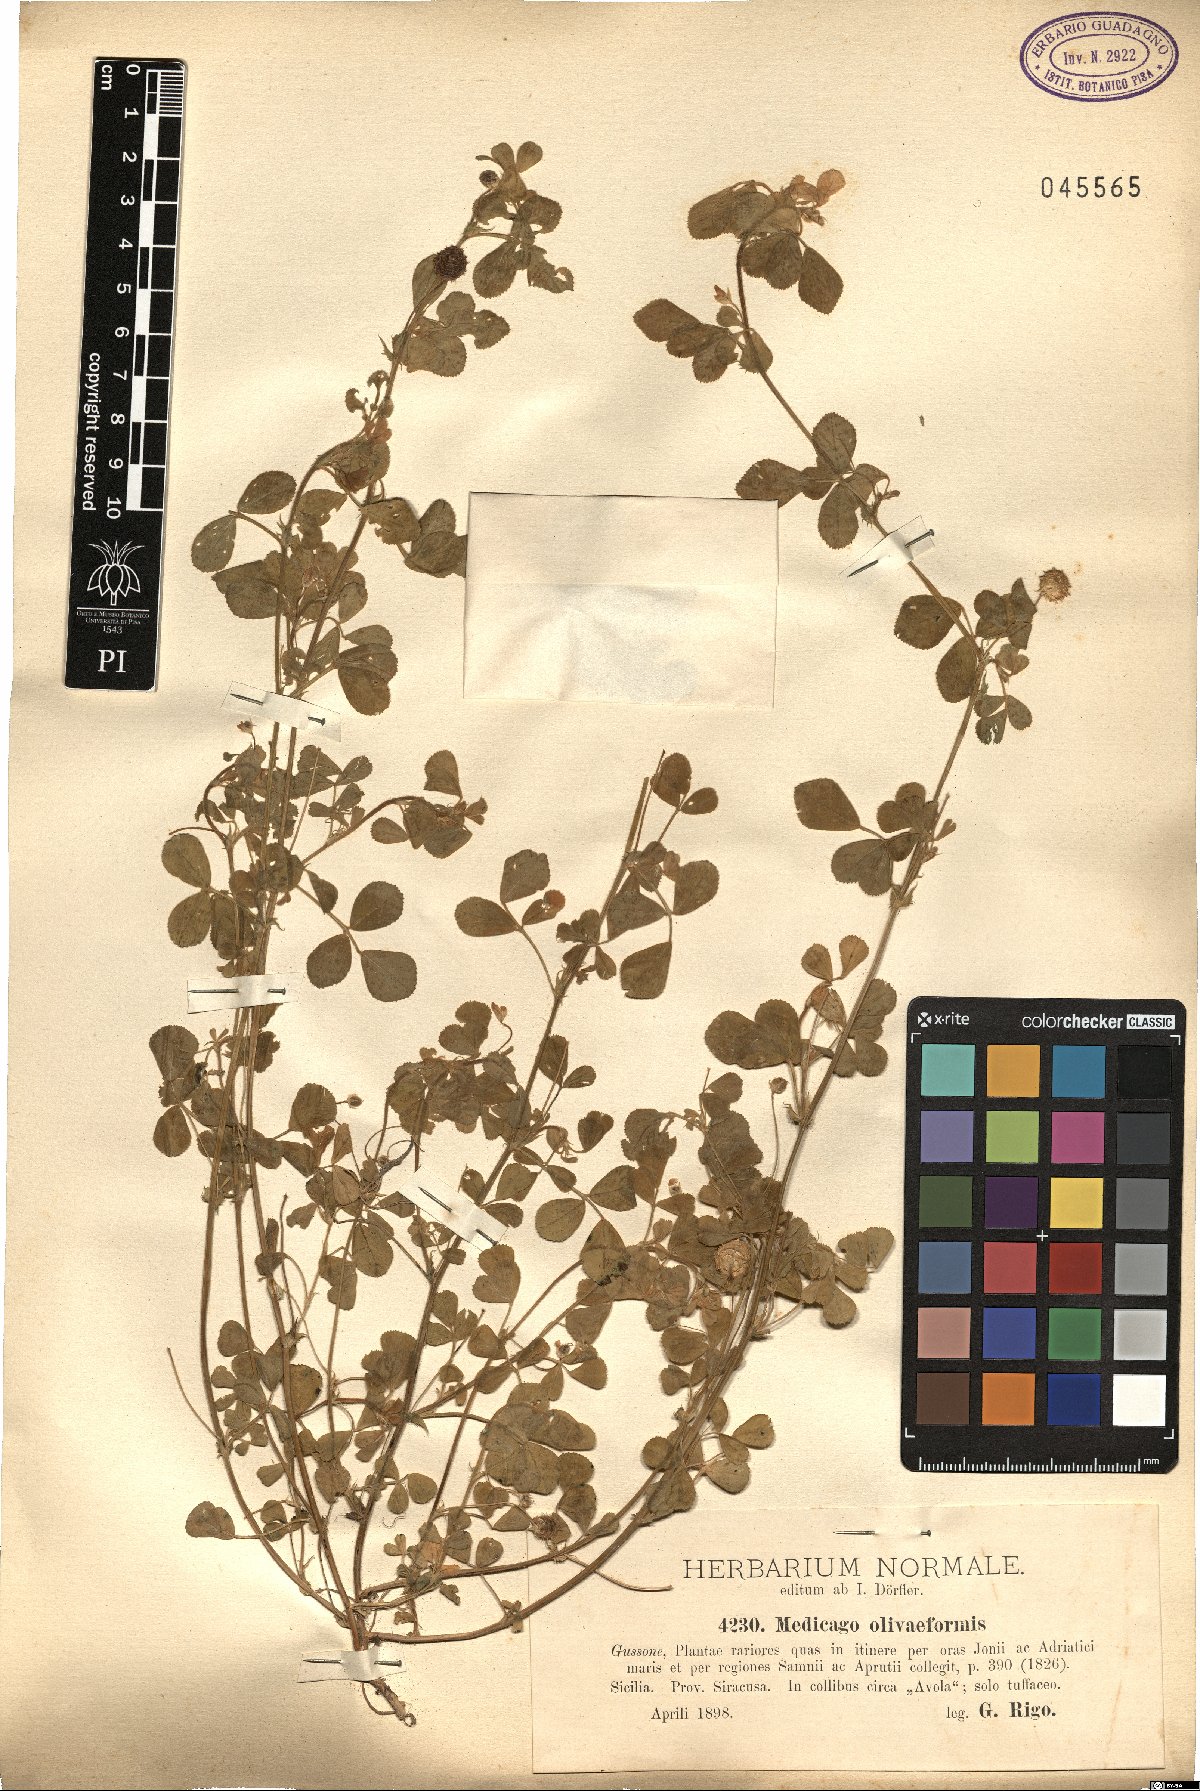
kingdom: Plantae
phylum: Tracheophyta
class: Magnoliopsida
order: Fabales
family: Fabaceae
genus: Medicago
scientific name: Medicago doliata
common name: Keg medic
